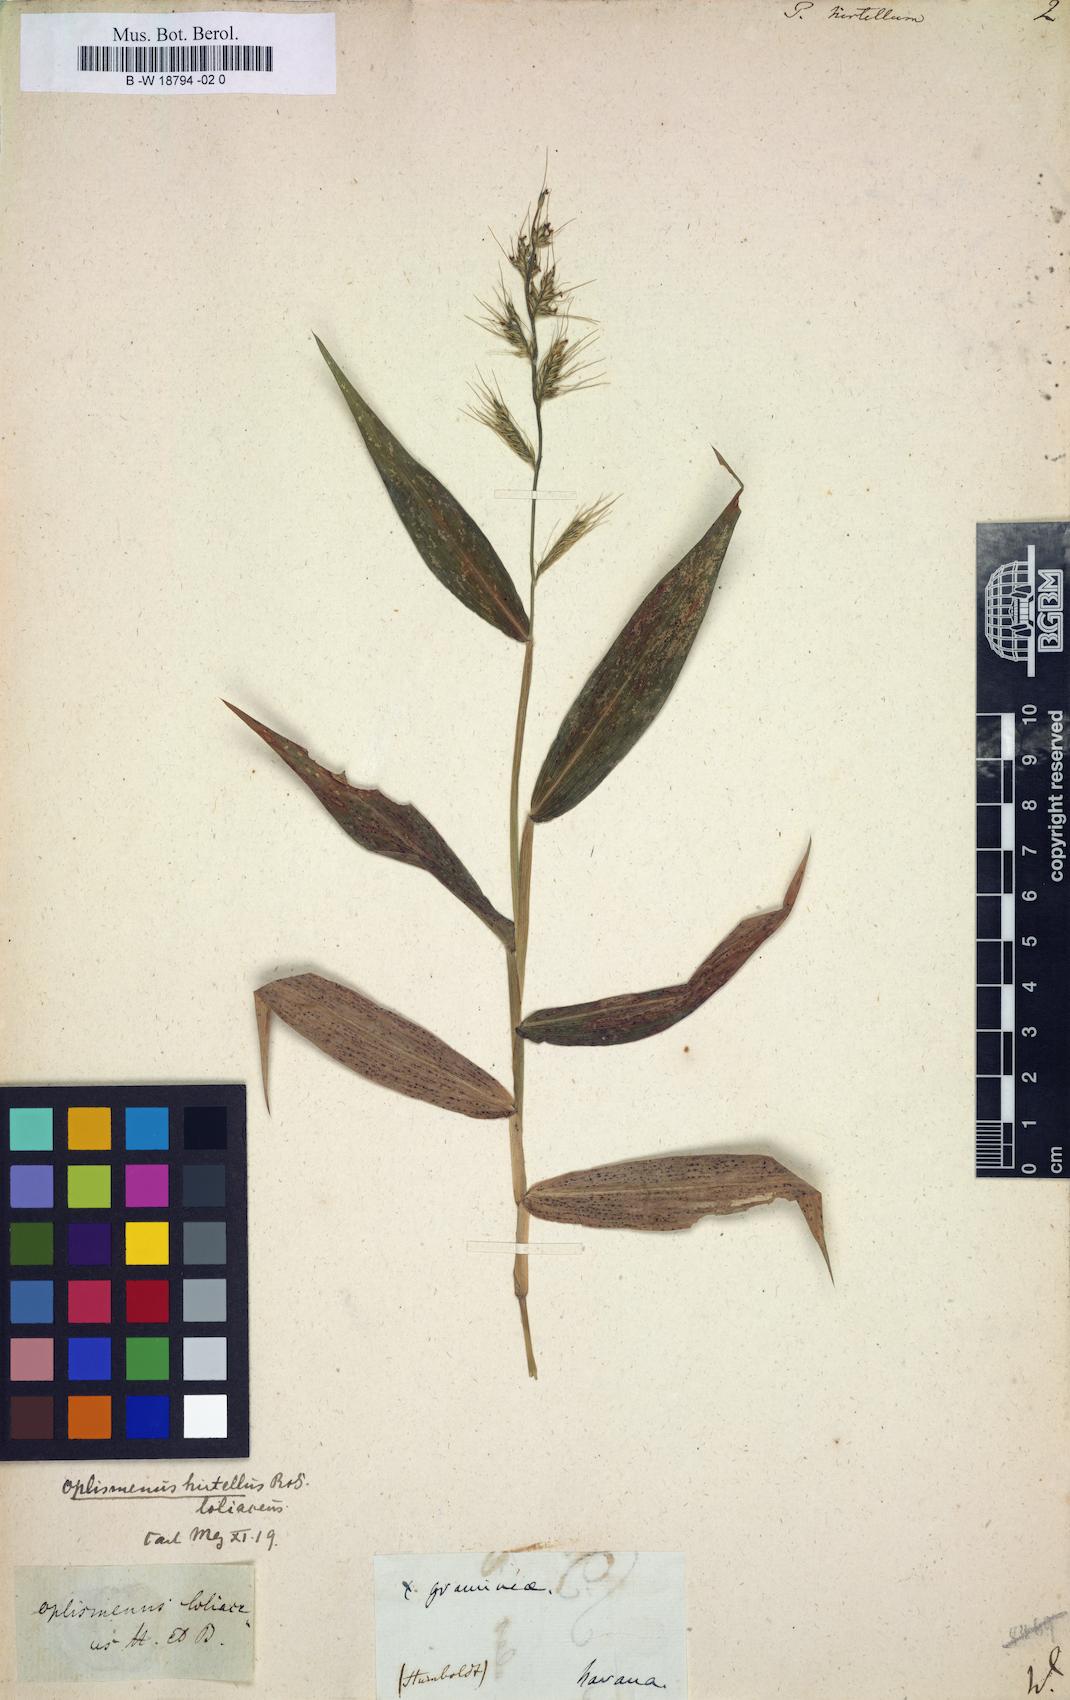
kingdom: Plantae
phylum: Tracheophyta
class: Liliopsida
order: Poales
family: Poaceae
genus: Panicum
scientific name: Panicum hirtellum
